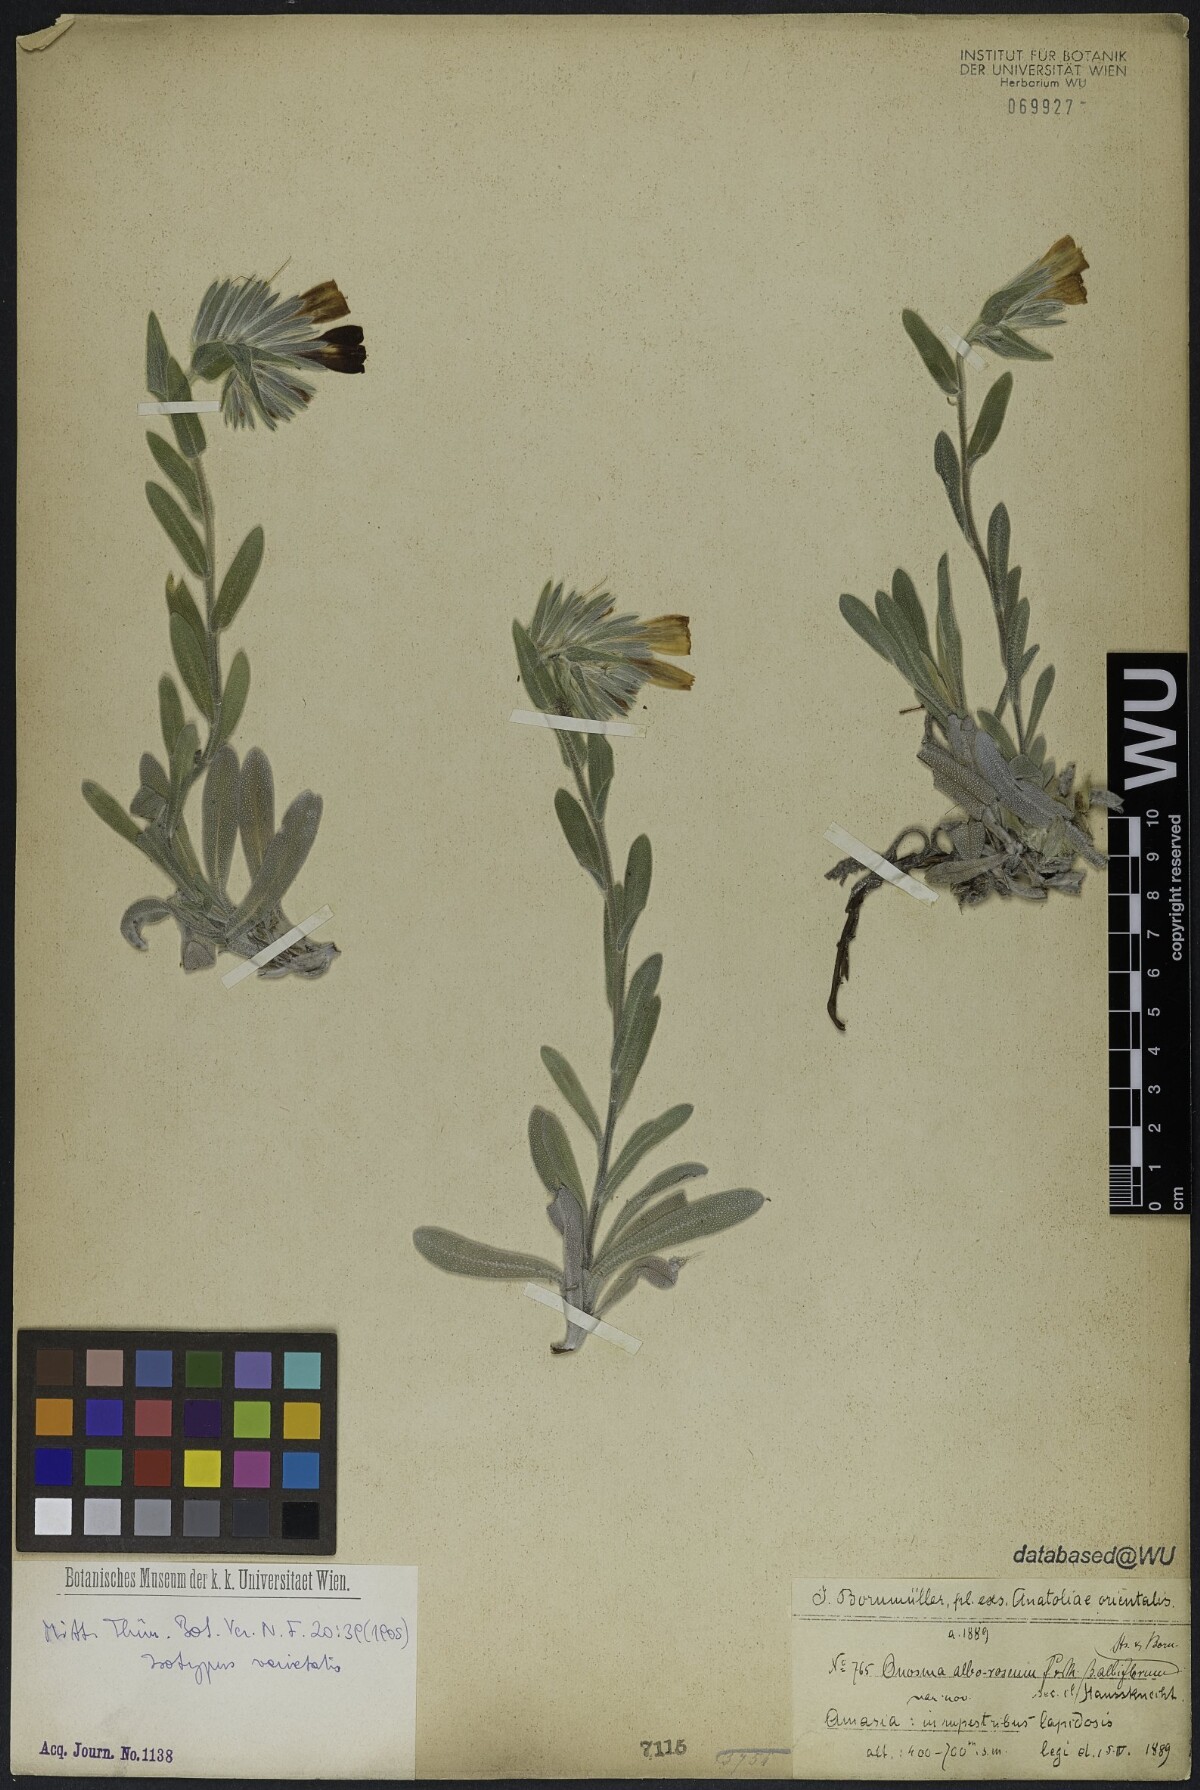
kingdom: Plantae
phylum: Tracheophyta
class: Magnoliopsida
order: Boraginales
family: Boraginaceae
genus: Onosma
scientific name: Onosma alborosea
